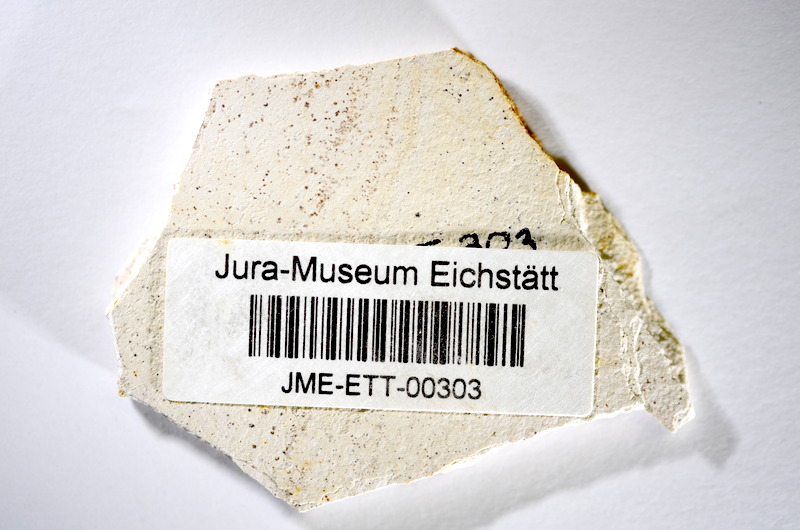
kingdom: Animalia
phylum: Chordata
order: Salmoniformes
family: Orthogonikleithridae
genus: Orthogonikleithrus
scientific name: Orthogonikleithrus hoelli
